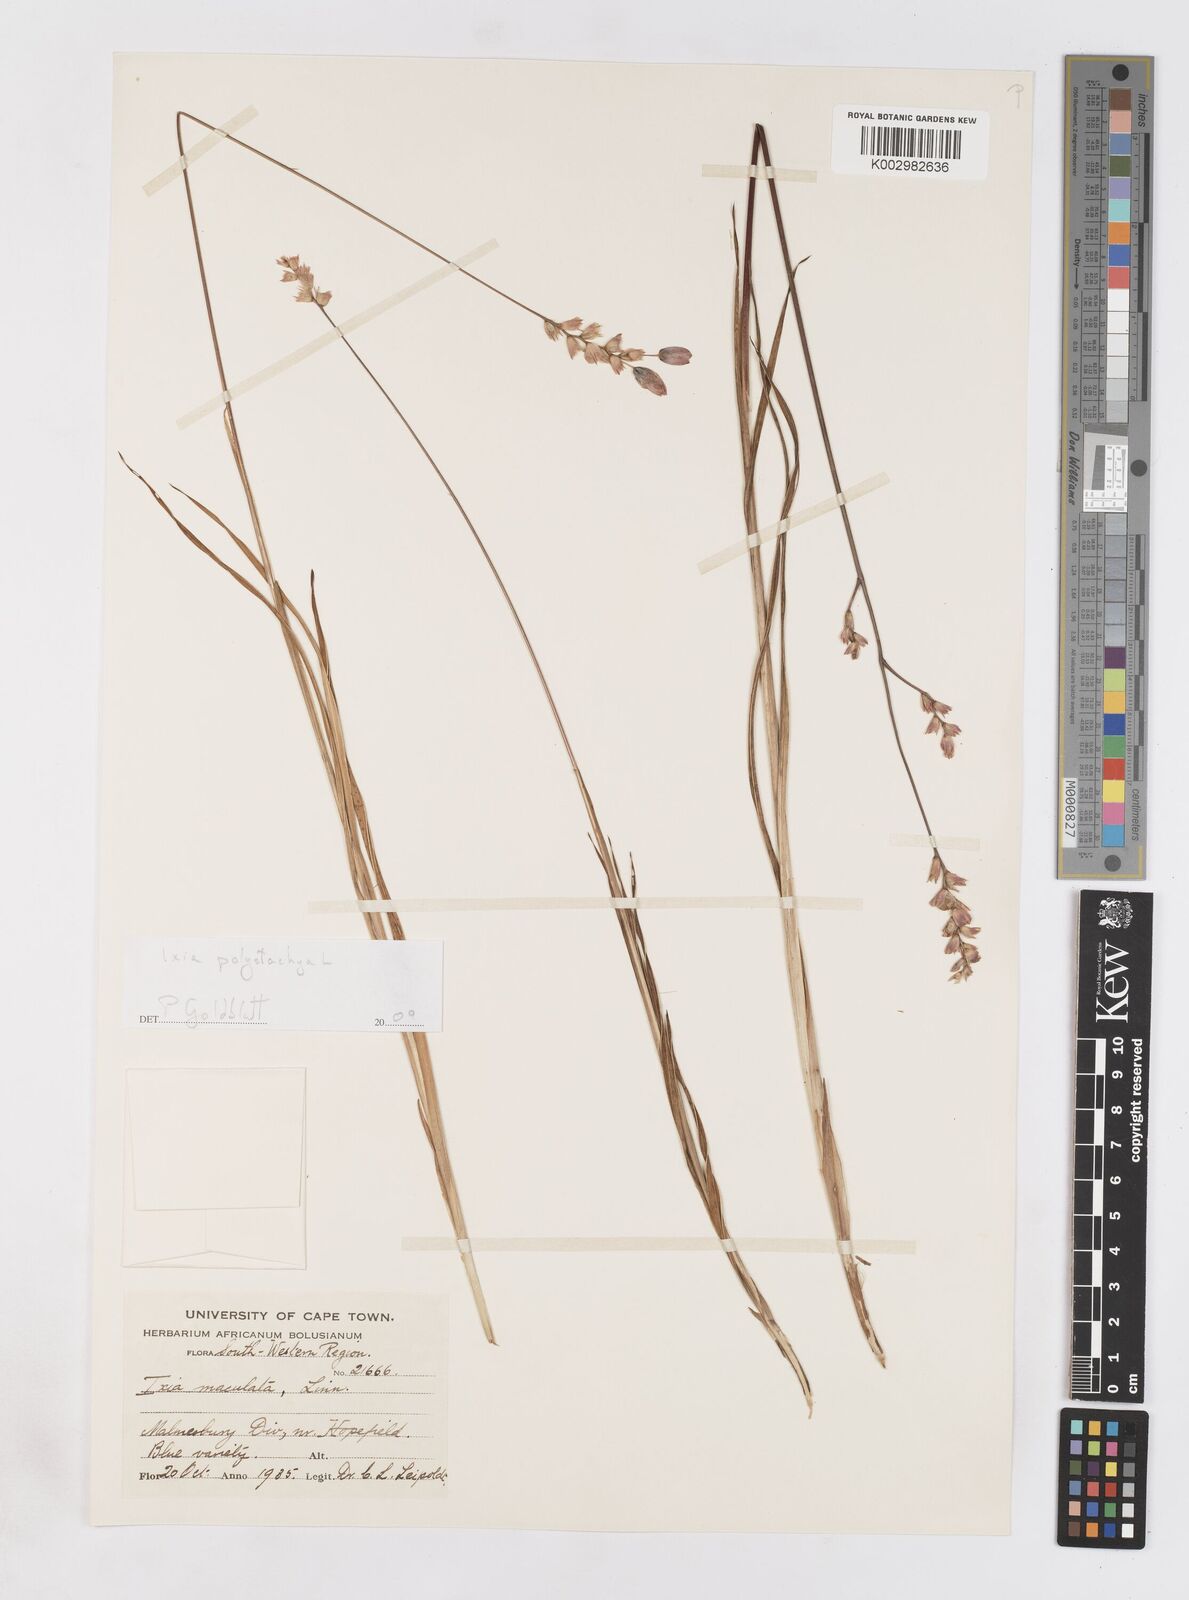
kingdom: Plantae
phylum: Tracheophyta
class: Liliopsida
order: Asparagales
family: Iridaceae
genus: Ixia
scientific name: Ixia polystachya
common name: White-and-yellow-flower cornlily
